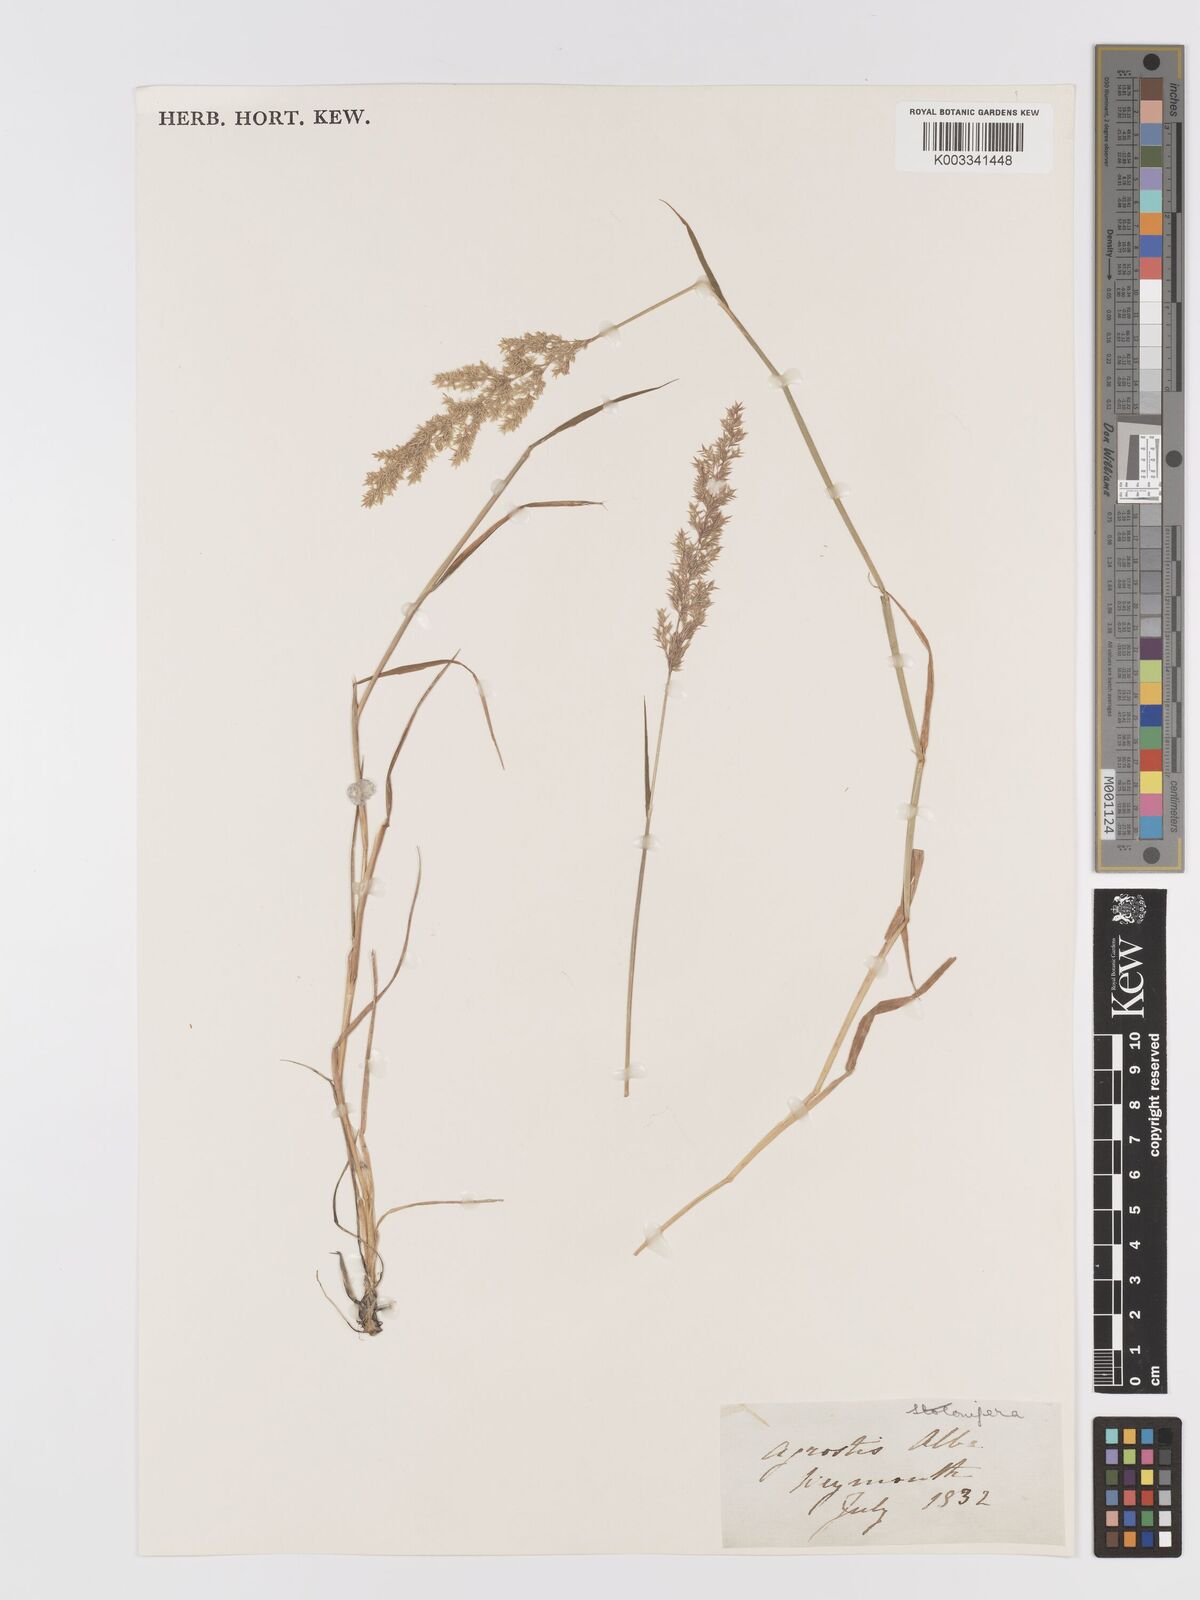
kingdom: Plantae
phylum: Tracheophyta
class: Liliopsida
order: Poales
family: Poaceae
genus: Agrostis
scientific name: Agrostis stolonifera
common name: Creeping bentgrass
